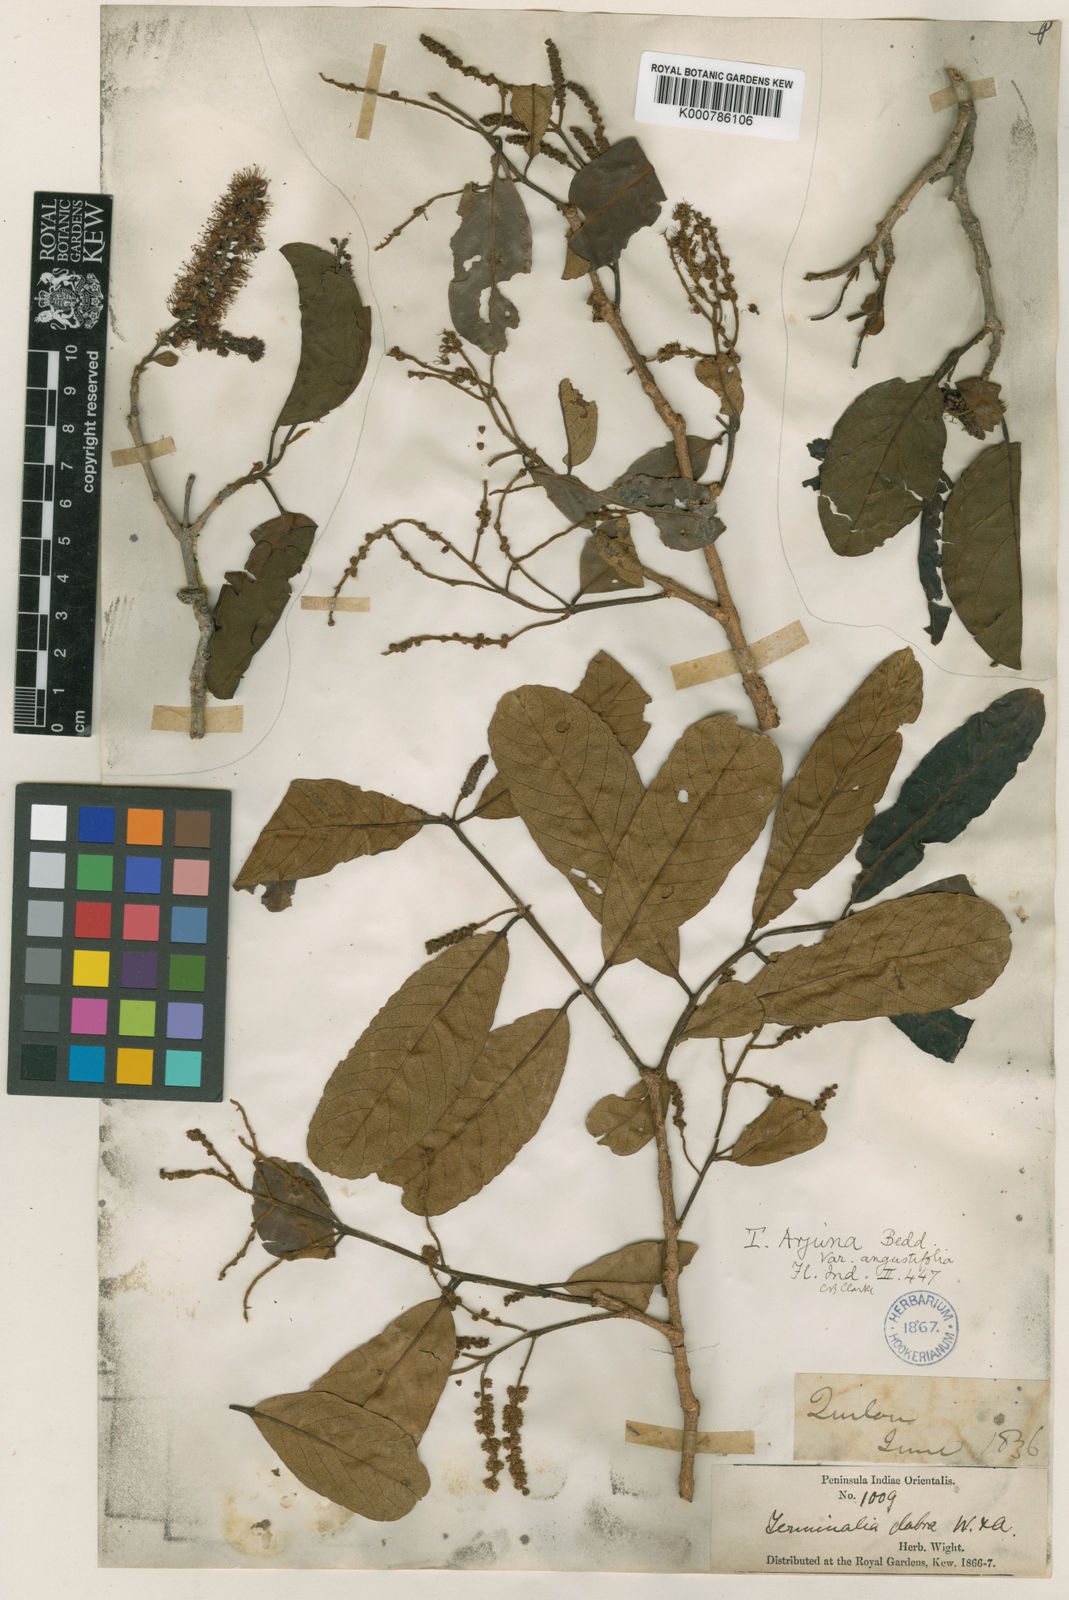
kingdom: Plantae
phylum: Tracheophyta
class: Magnoliopsida
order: Myrtales
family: Combretaceae
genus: Terminalia
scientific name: Terminalia
